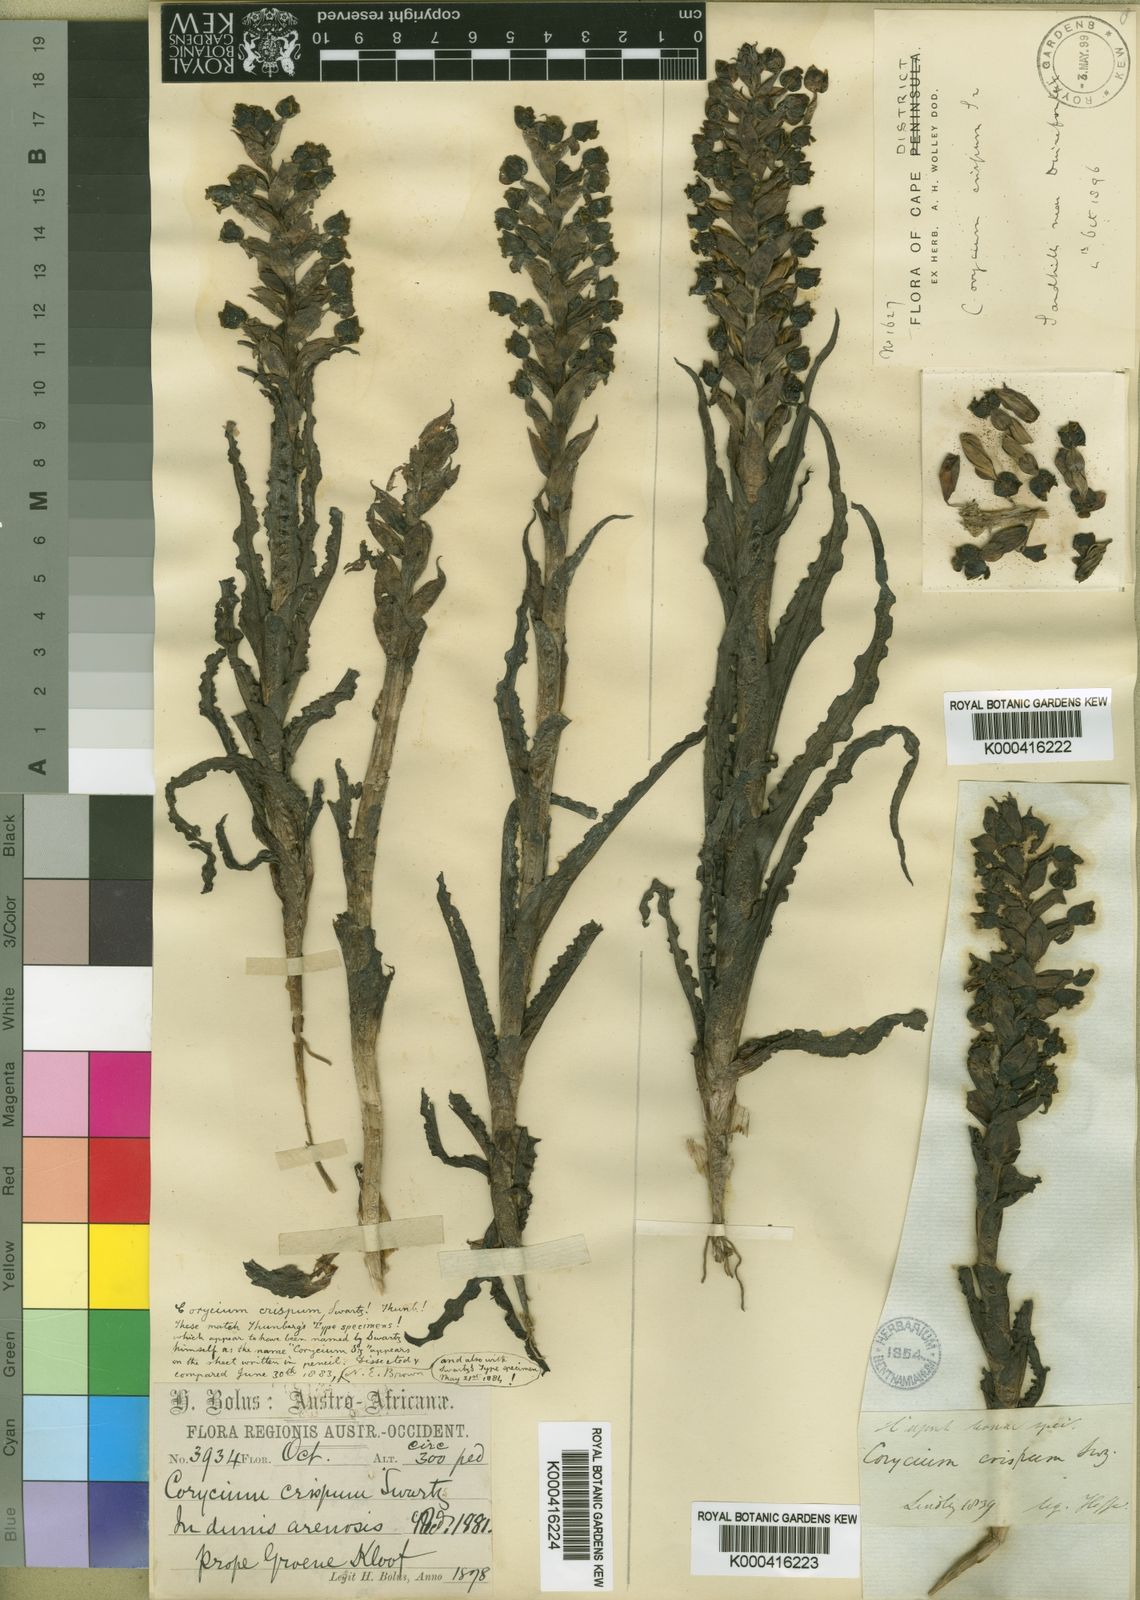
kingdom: Plantae
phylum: Tracheophyta
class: Liliopsida
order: Asparagales
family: Orchidaceae
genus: Corycium
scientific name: Corycium crispum
